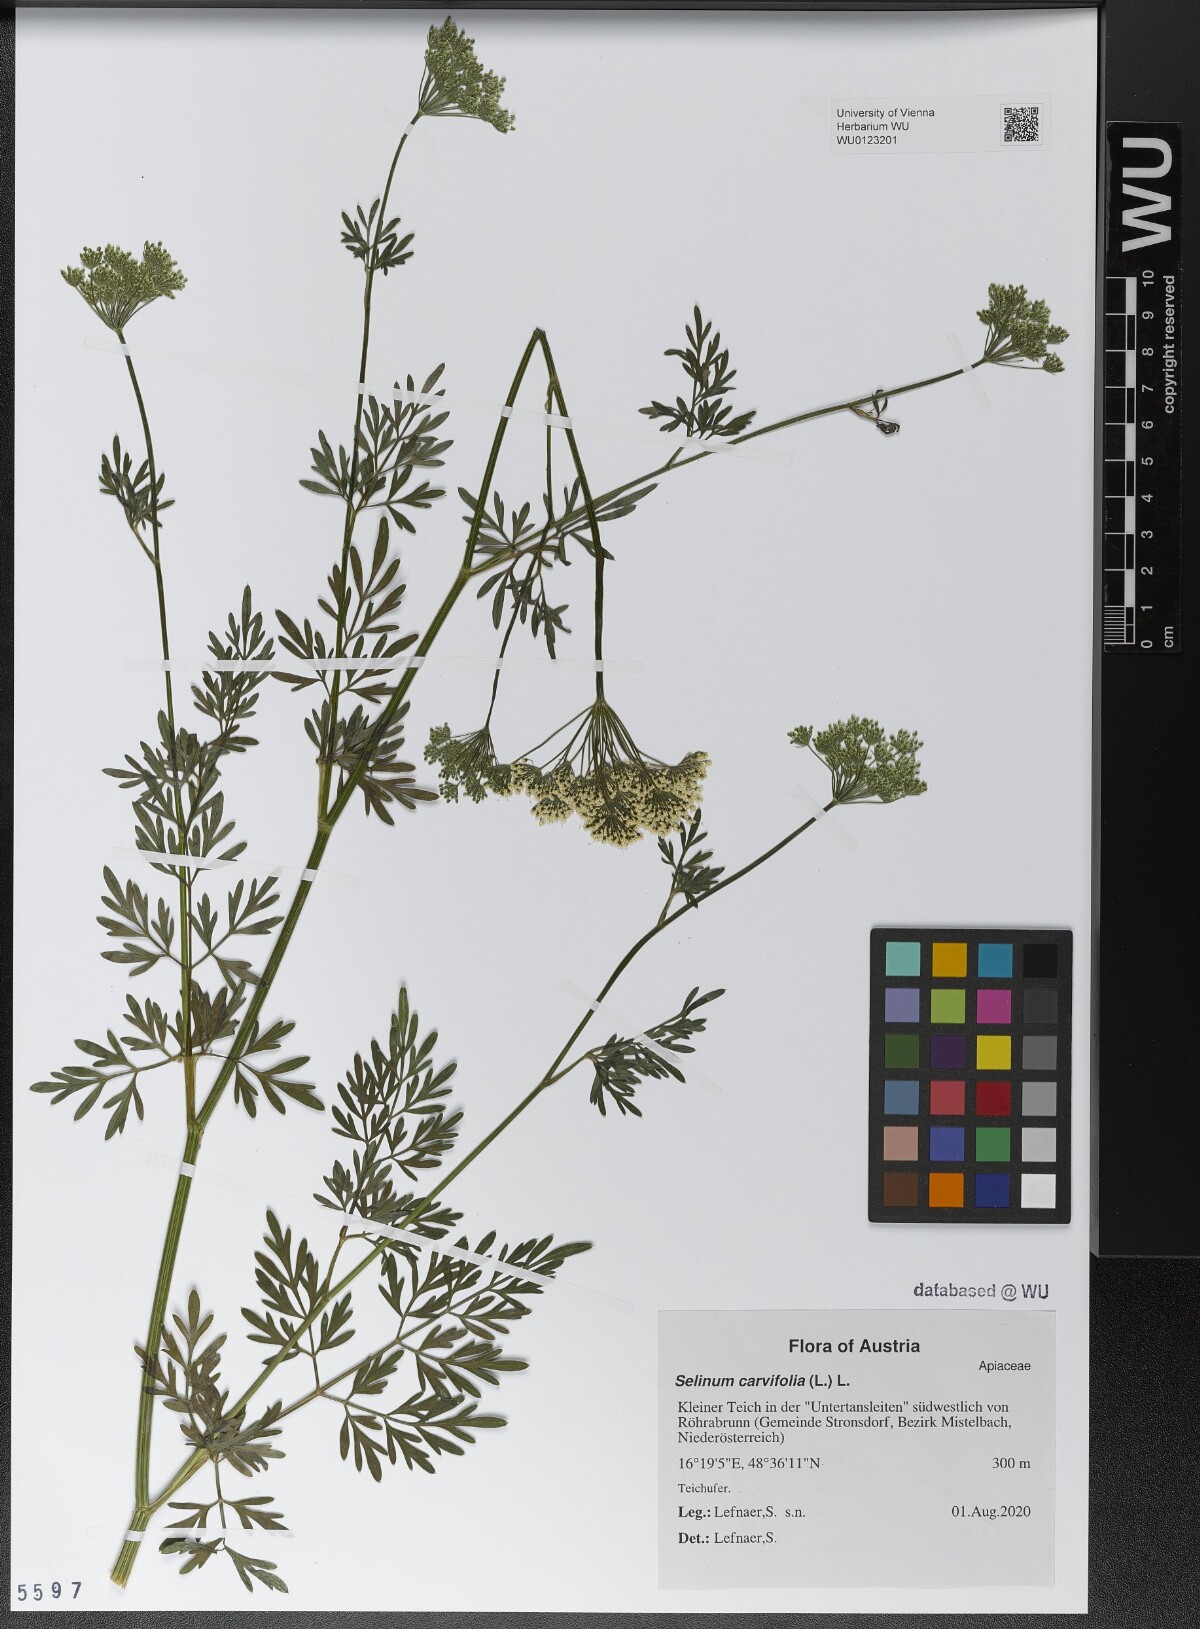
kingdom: Plantae
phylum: Tracheophyta
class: Magnoliopsida
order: Apiales
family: Apiaceae
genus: Selinum
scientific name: Selinum carvifolia
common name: Cambridge milk-parsley
